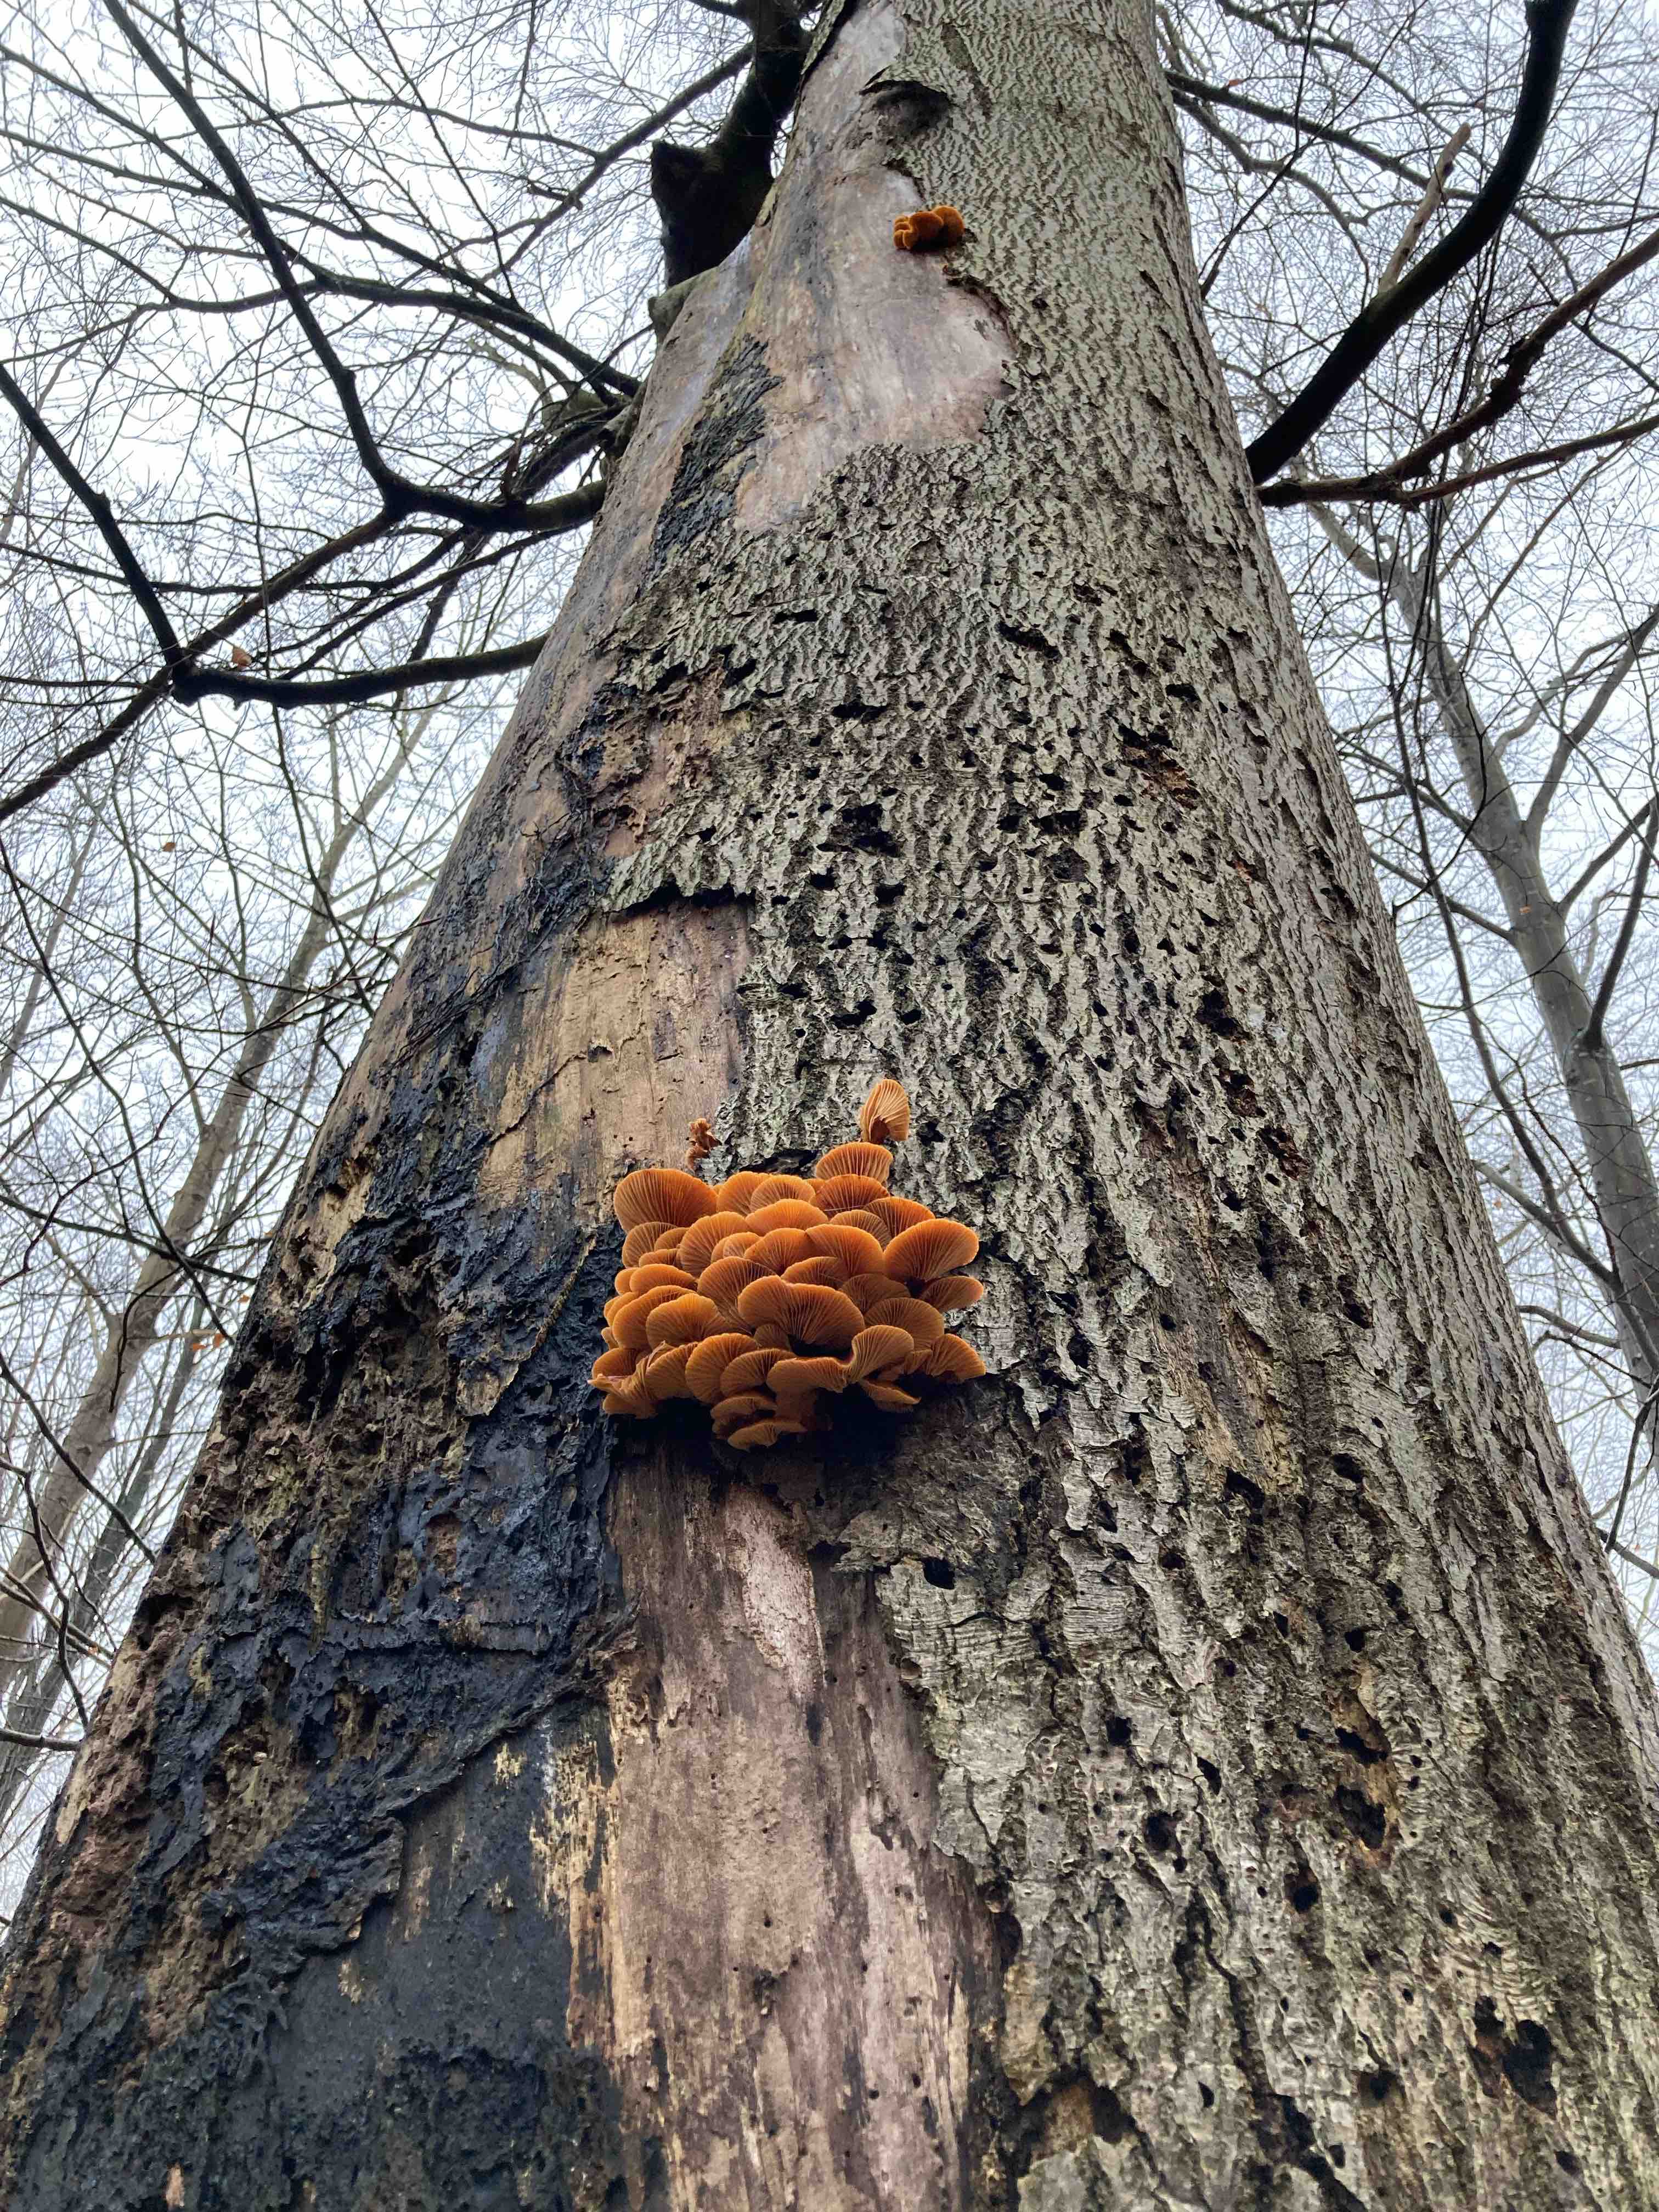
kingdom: Fungi
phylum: Basidiomycota
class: Agaricomycetes
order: Agaricales
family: Physalacriaceae
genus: Flammulina
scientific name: Flammulina velutipes
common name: gul fløjlsfod
